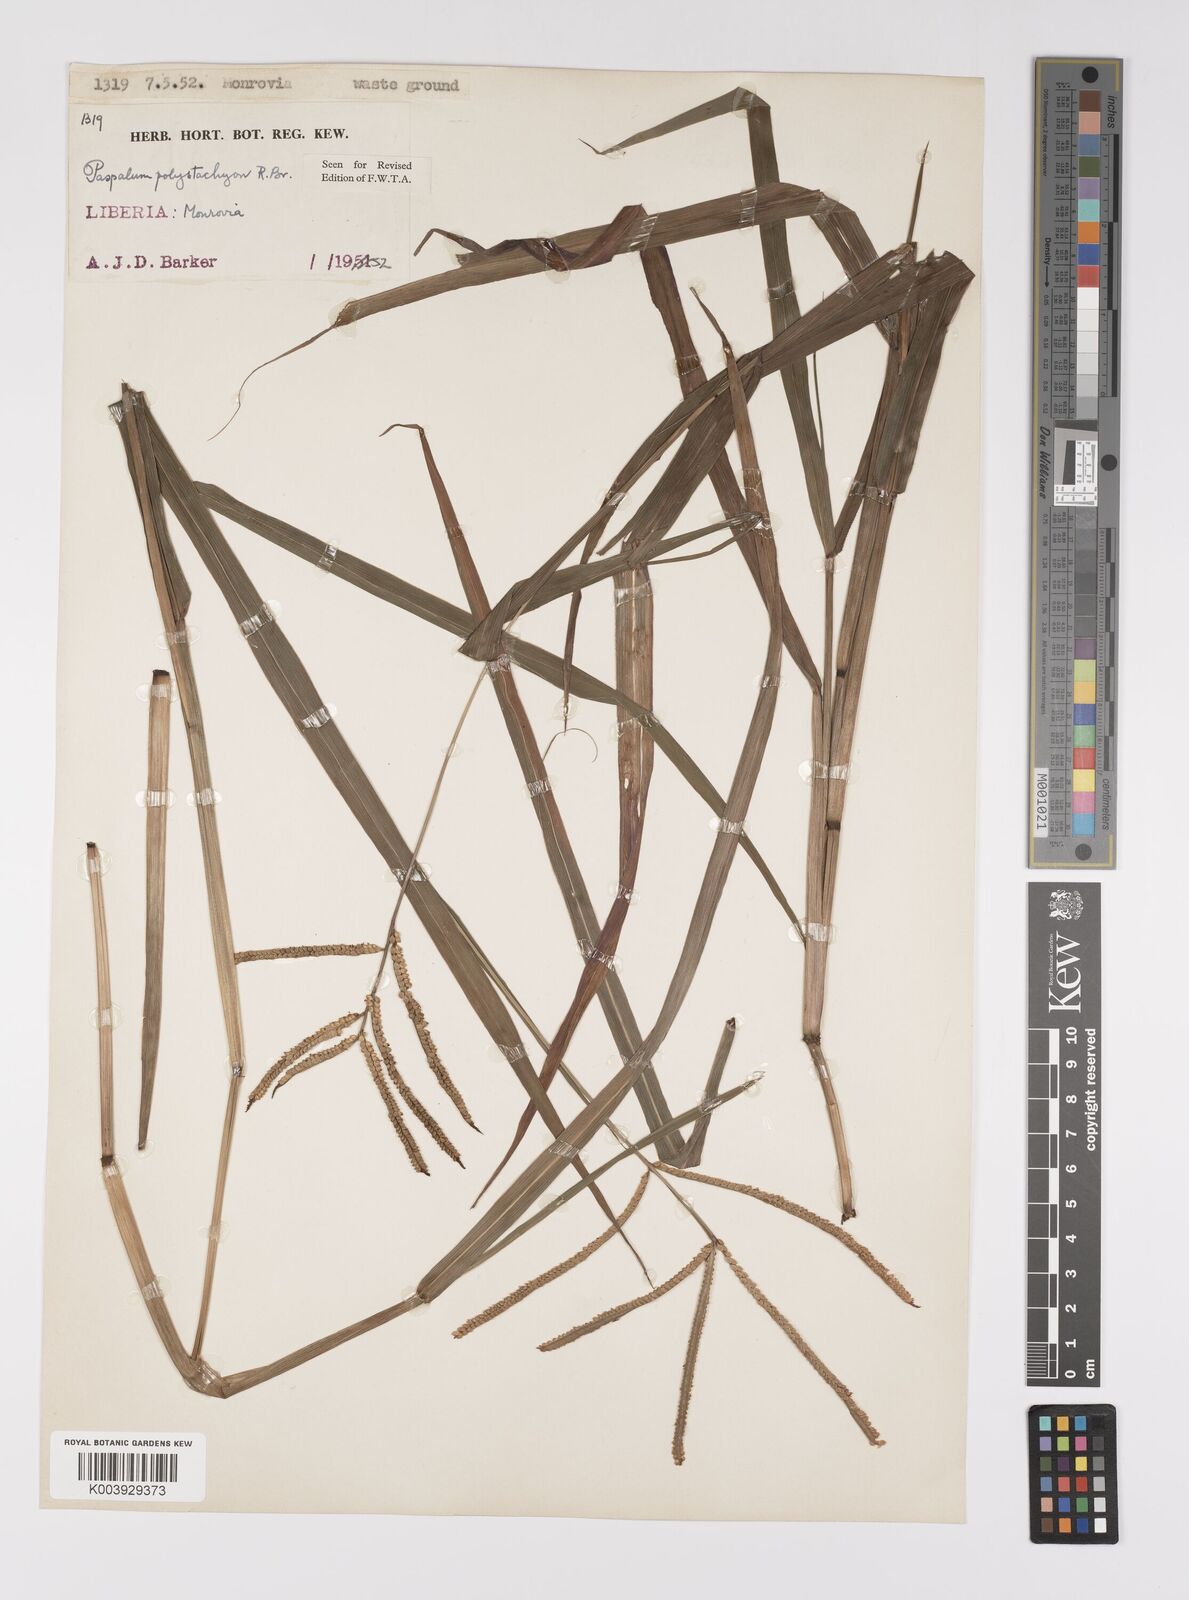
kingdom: Plantae
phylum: Tracheophyta
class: Liliopsida
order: Poales
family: Poaceae
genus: Paspalum
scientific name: Paspalum scrobiculatum
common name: Kodo millet
